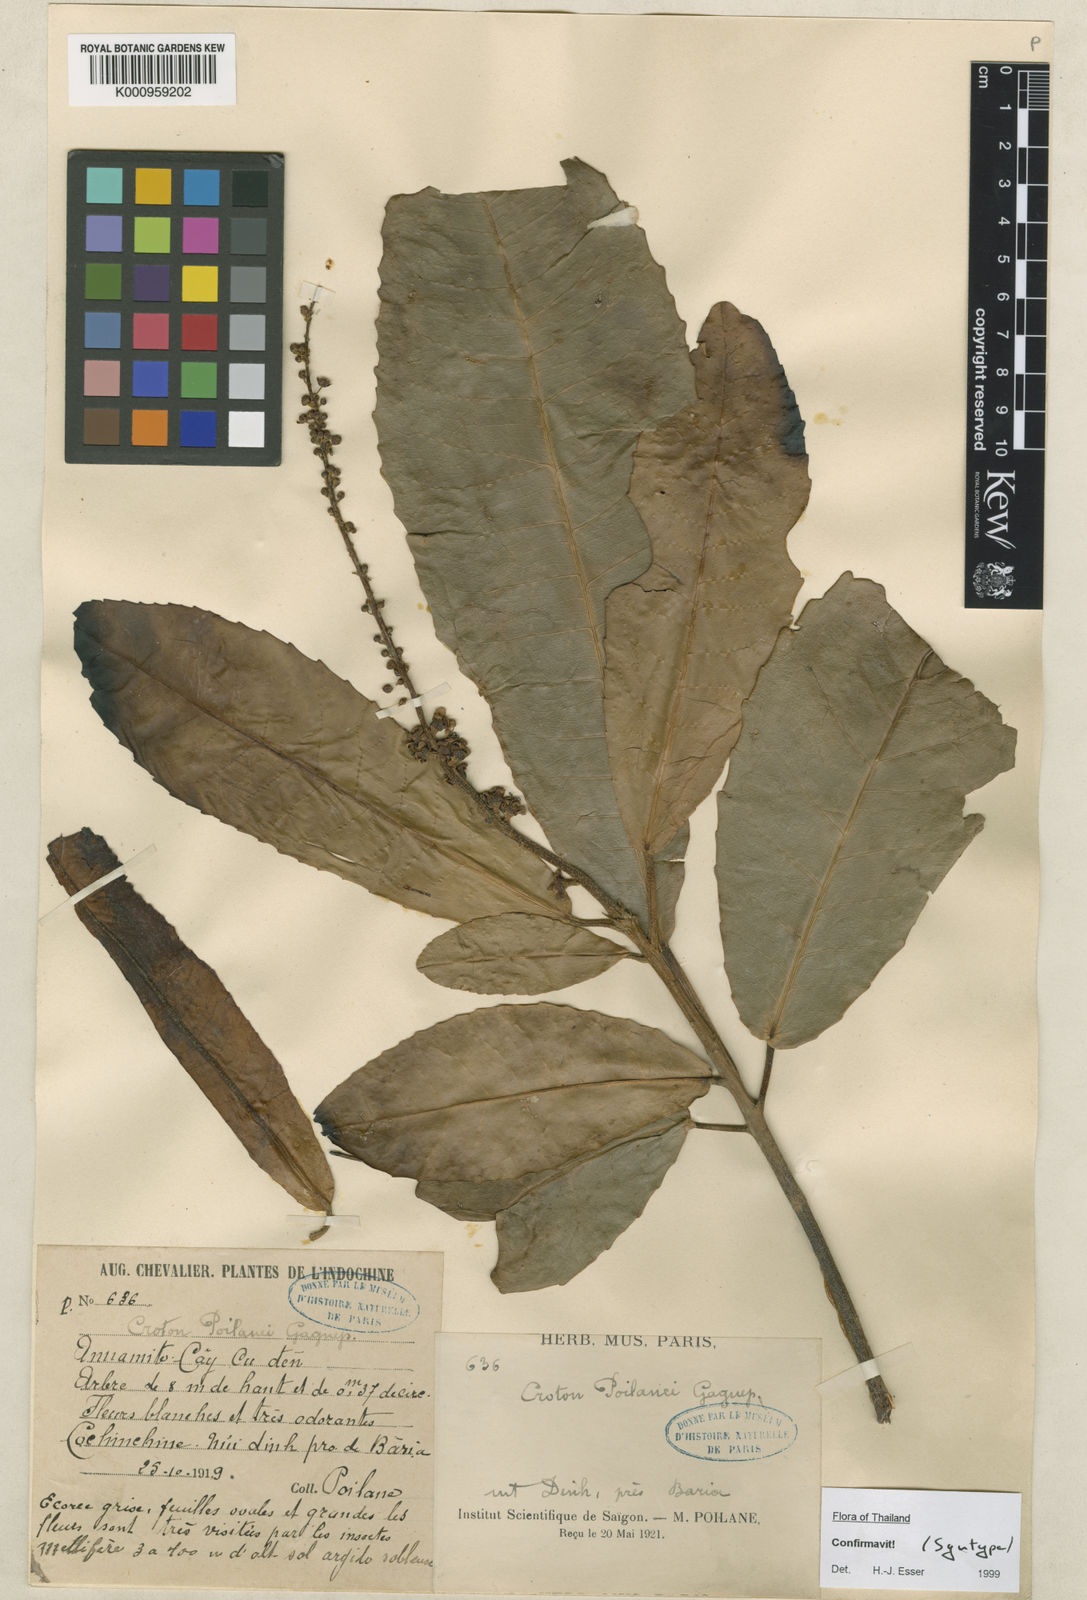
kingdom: Plantae
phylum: Tracheophyta
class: Magnoliopsida
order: Malpighiales
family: Euphorbiaceae
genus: Croton
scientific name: Croton poilanei
